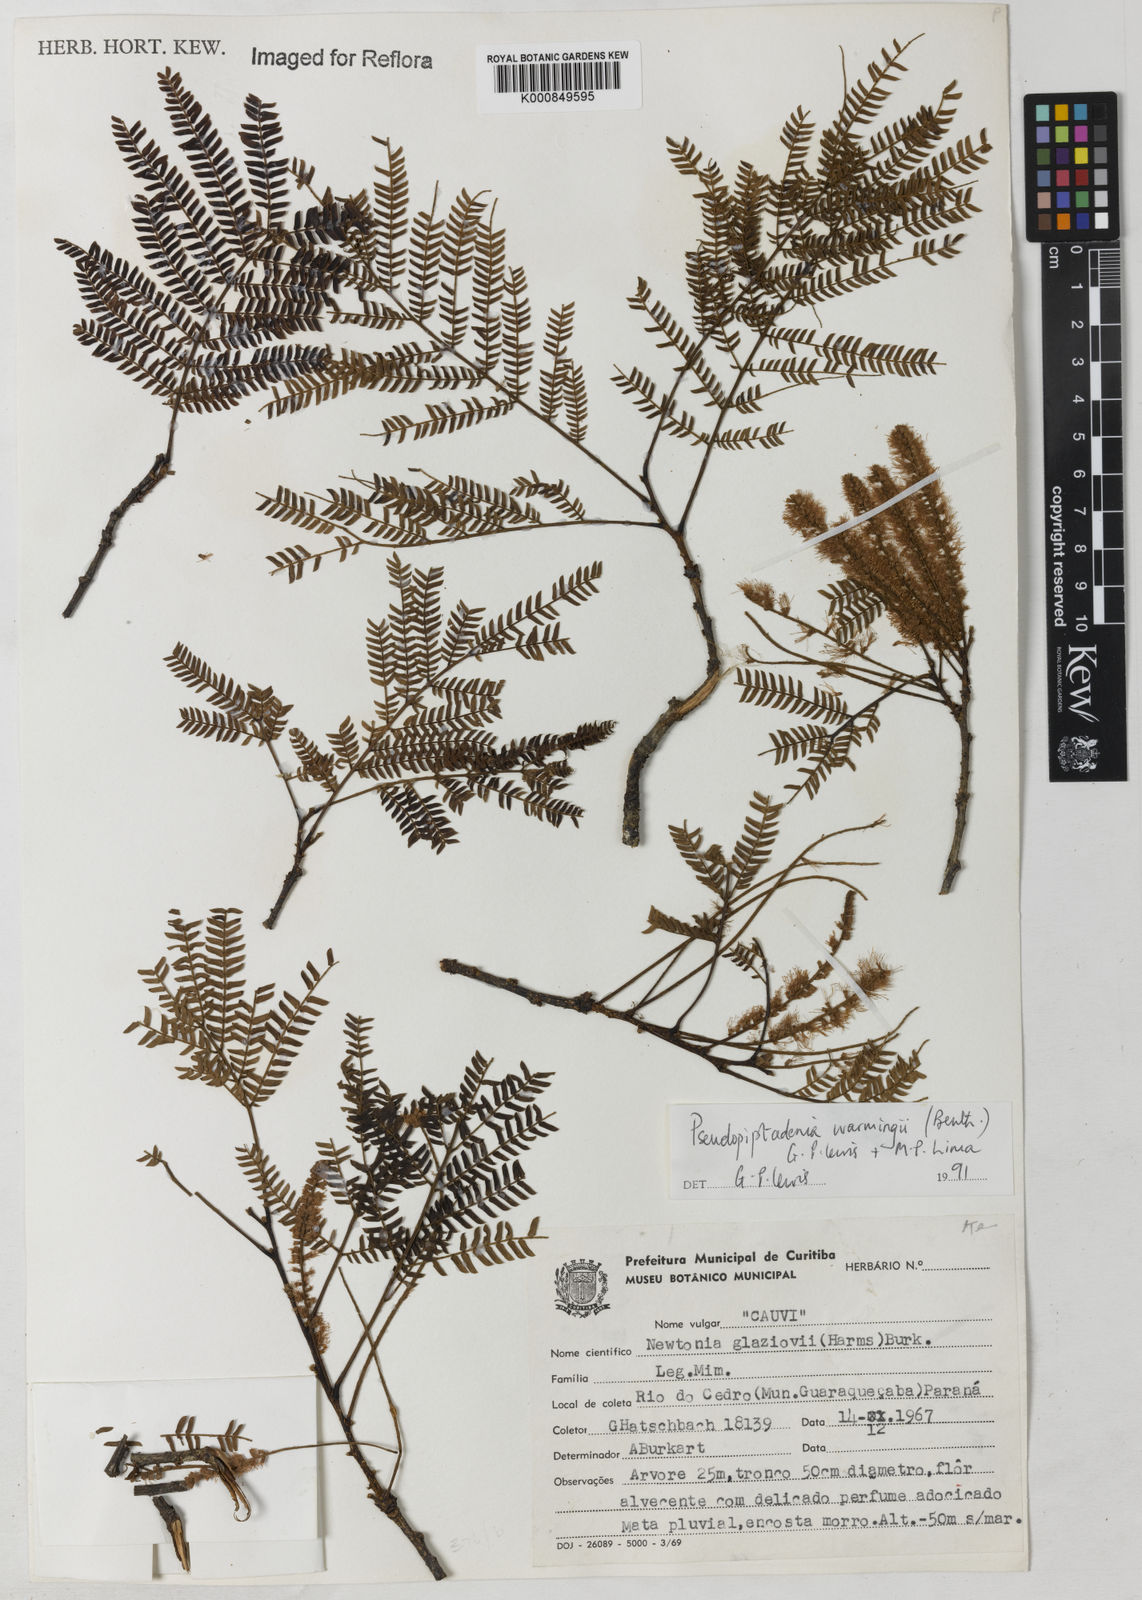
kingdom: Plantae
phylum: Tracheophyta
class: Magnoliopsida
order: Fabales
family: Fabaceae
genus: Pseudopiptadenia
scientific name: Pseudopiptadenia warmingii
